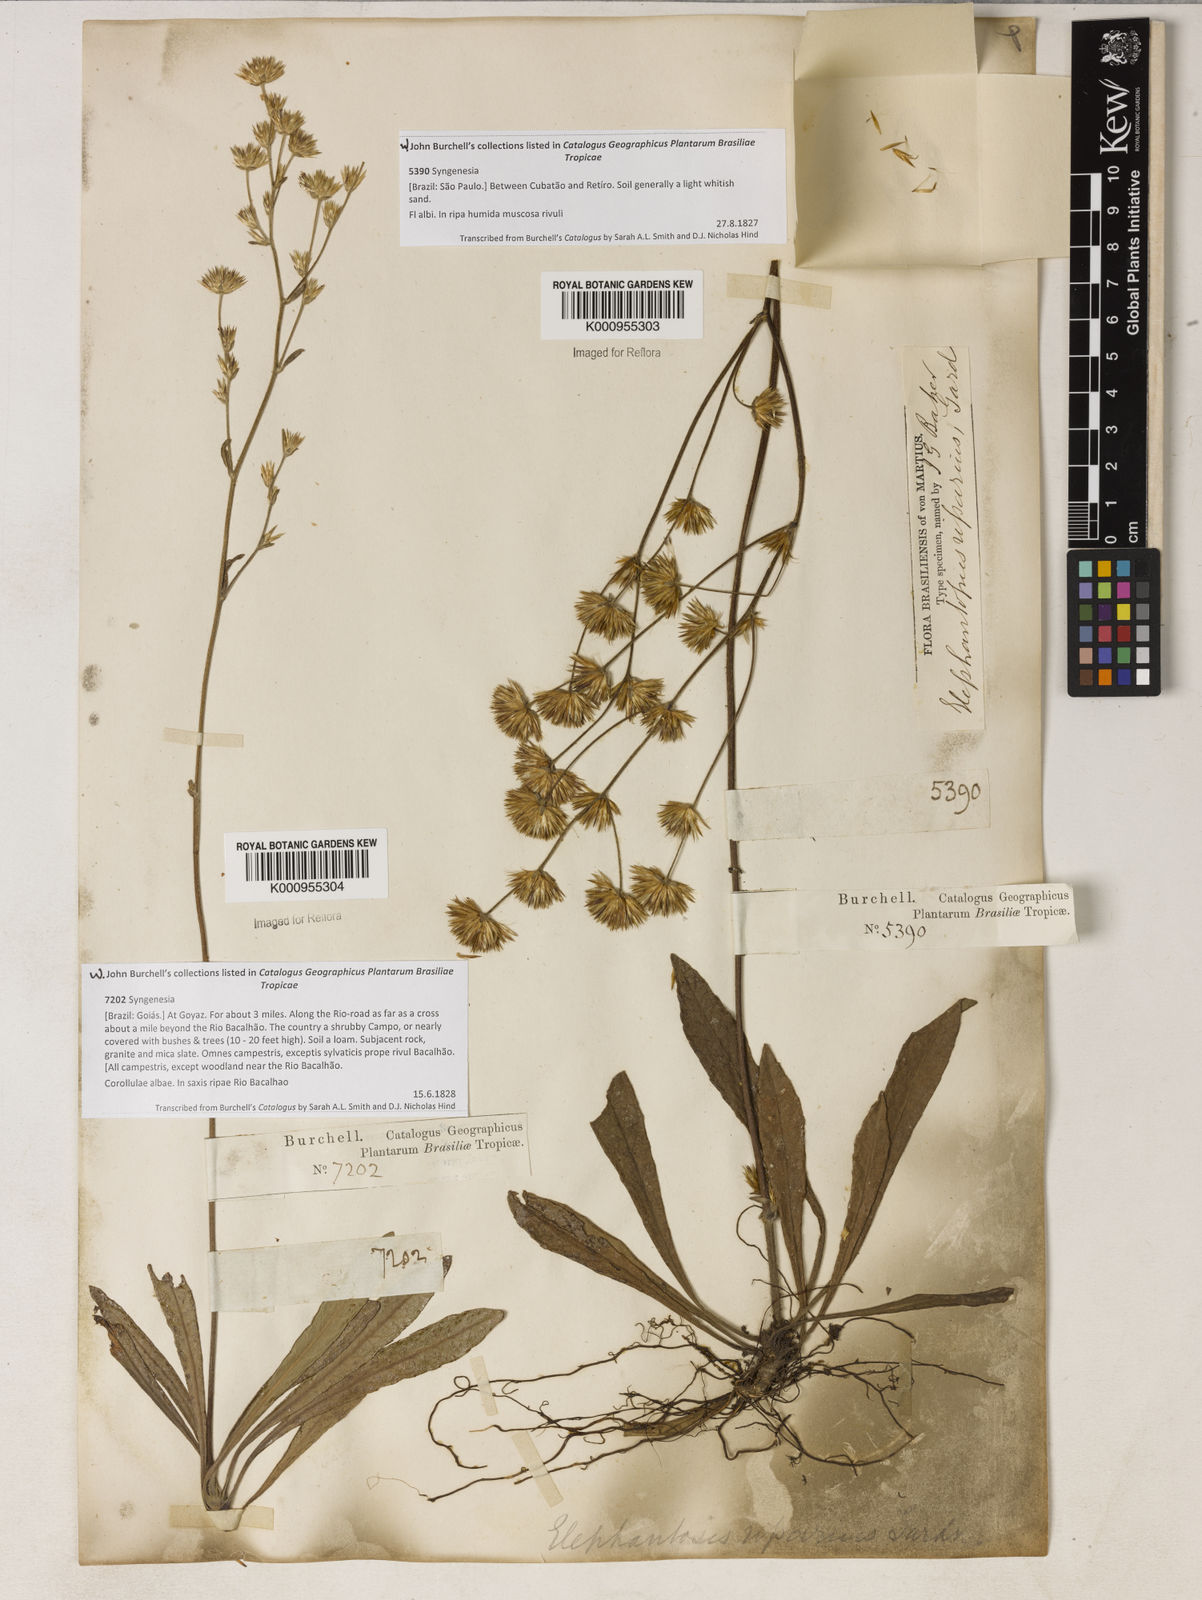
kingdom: Plantae
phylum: Tracheophyta
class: Magnoliopsida
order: Asterales
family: Asteraceae
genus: Elephantopus
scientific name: Elephantopus riparius
